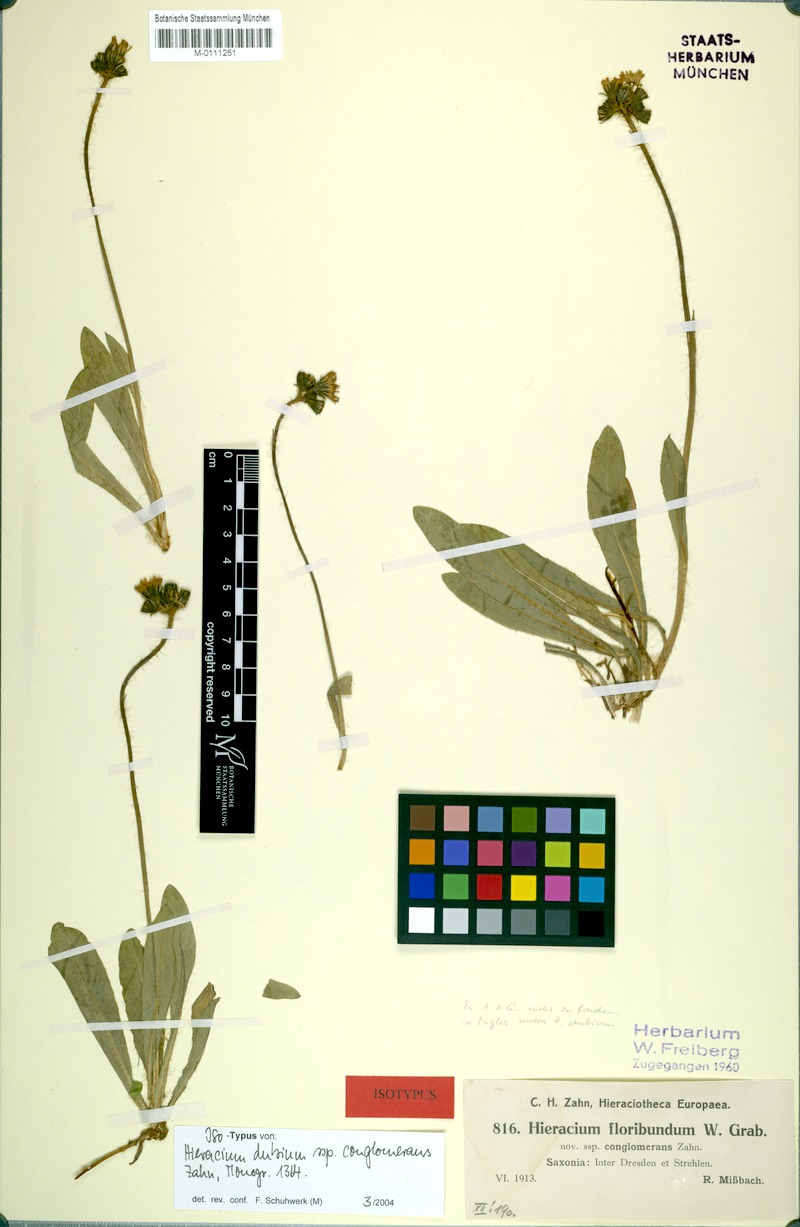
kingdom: Plantae
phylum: Tracheophyta
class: Magnoliopsida
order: Asterales
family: Asteraceae
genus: Pilosella
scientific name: Pilosella dubia
